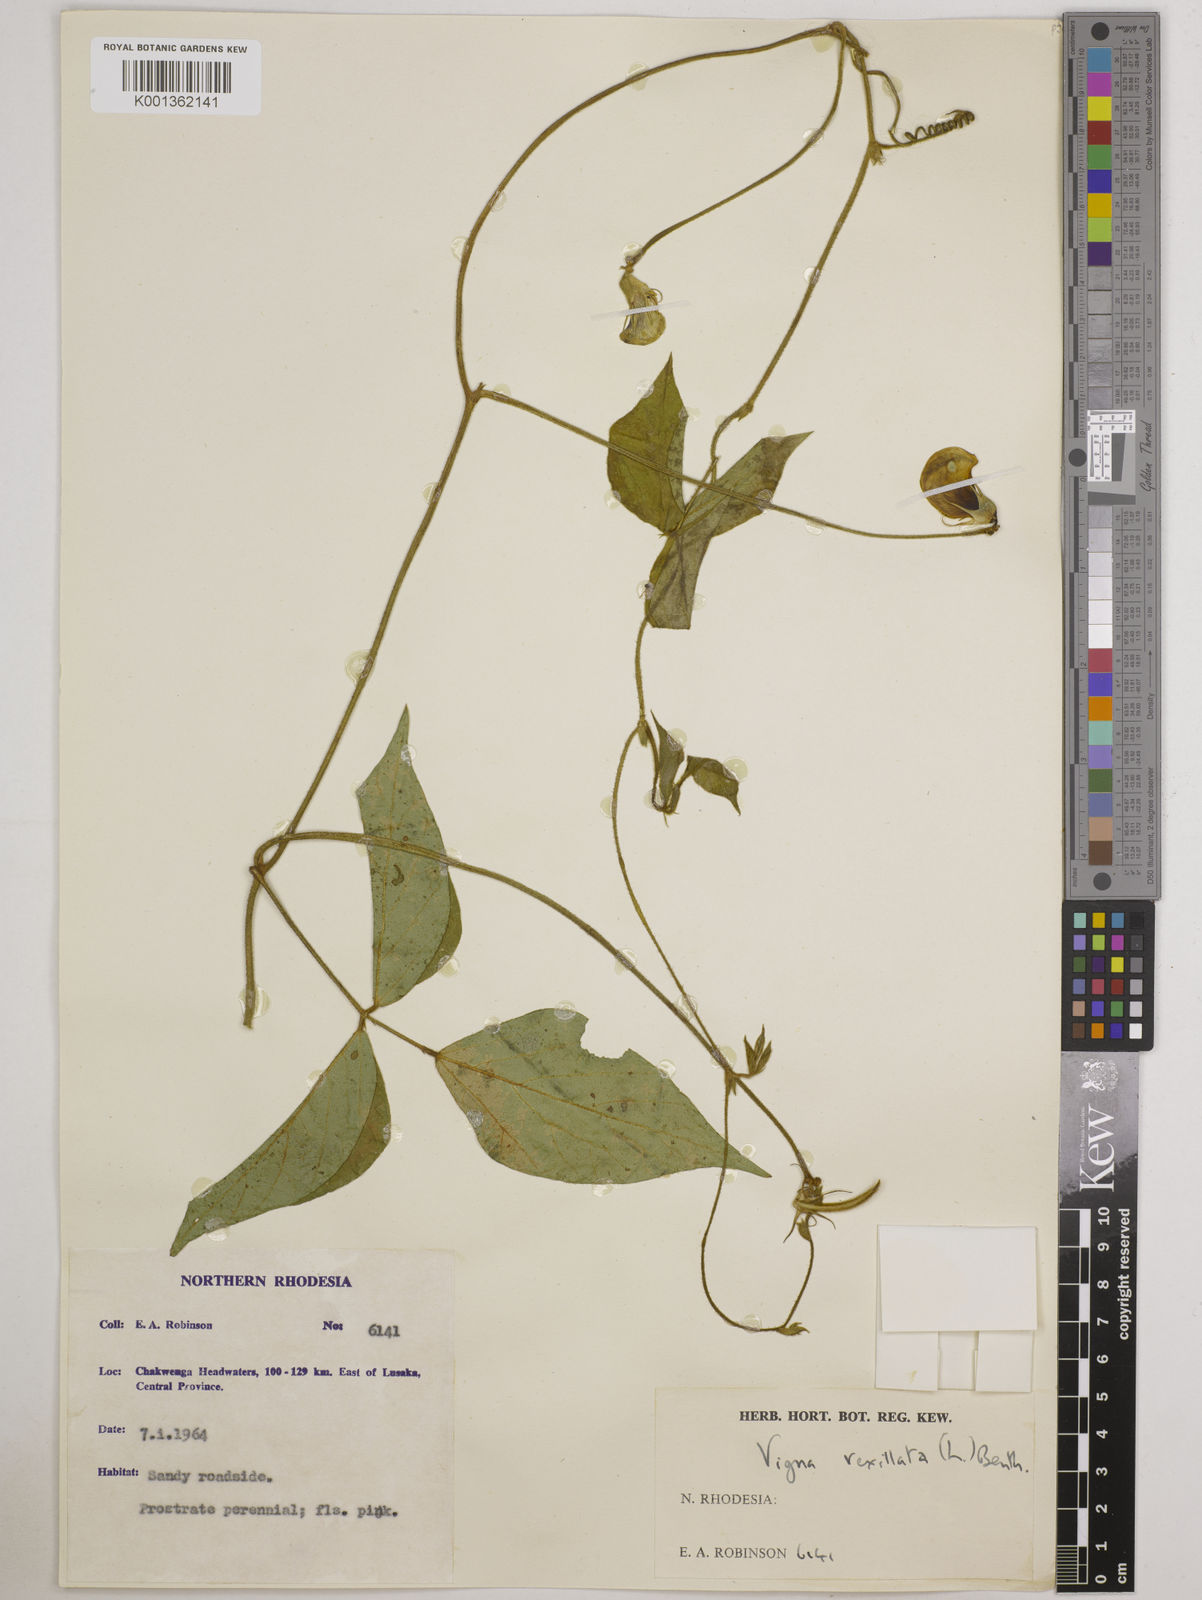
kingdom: Plantae
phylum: Tracheophyta
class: Magnoliopsida
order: Fabales
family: Fabaceae
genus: Vigna
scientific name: Vigna vexillata
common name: Zombi pea
